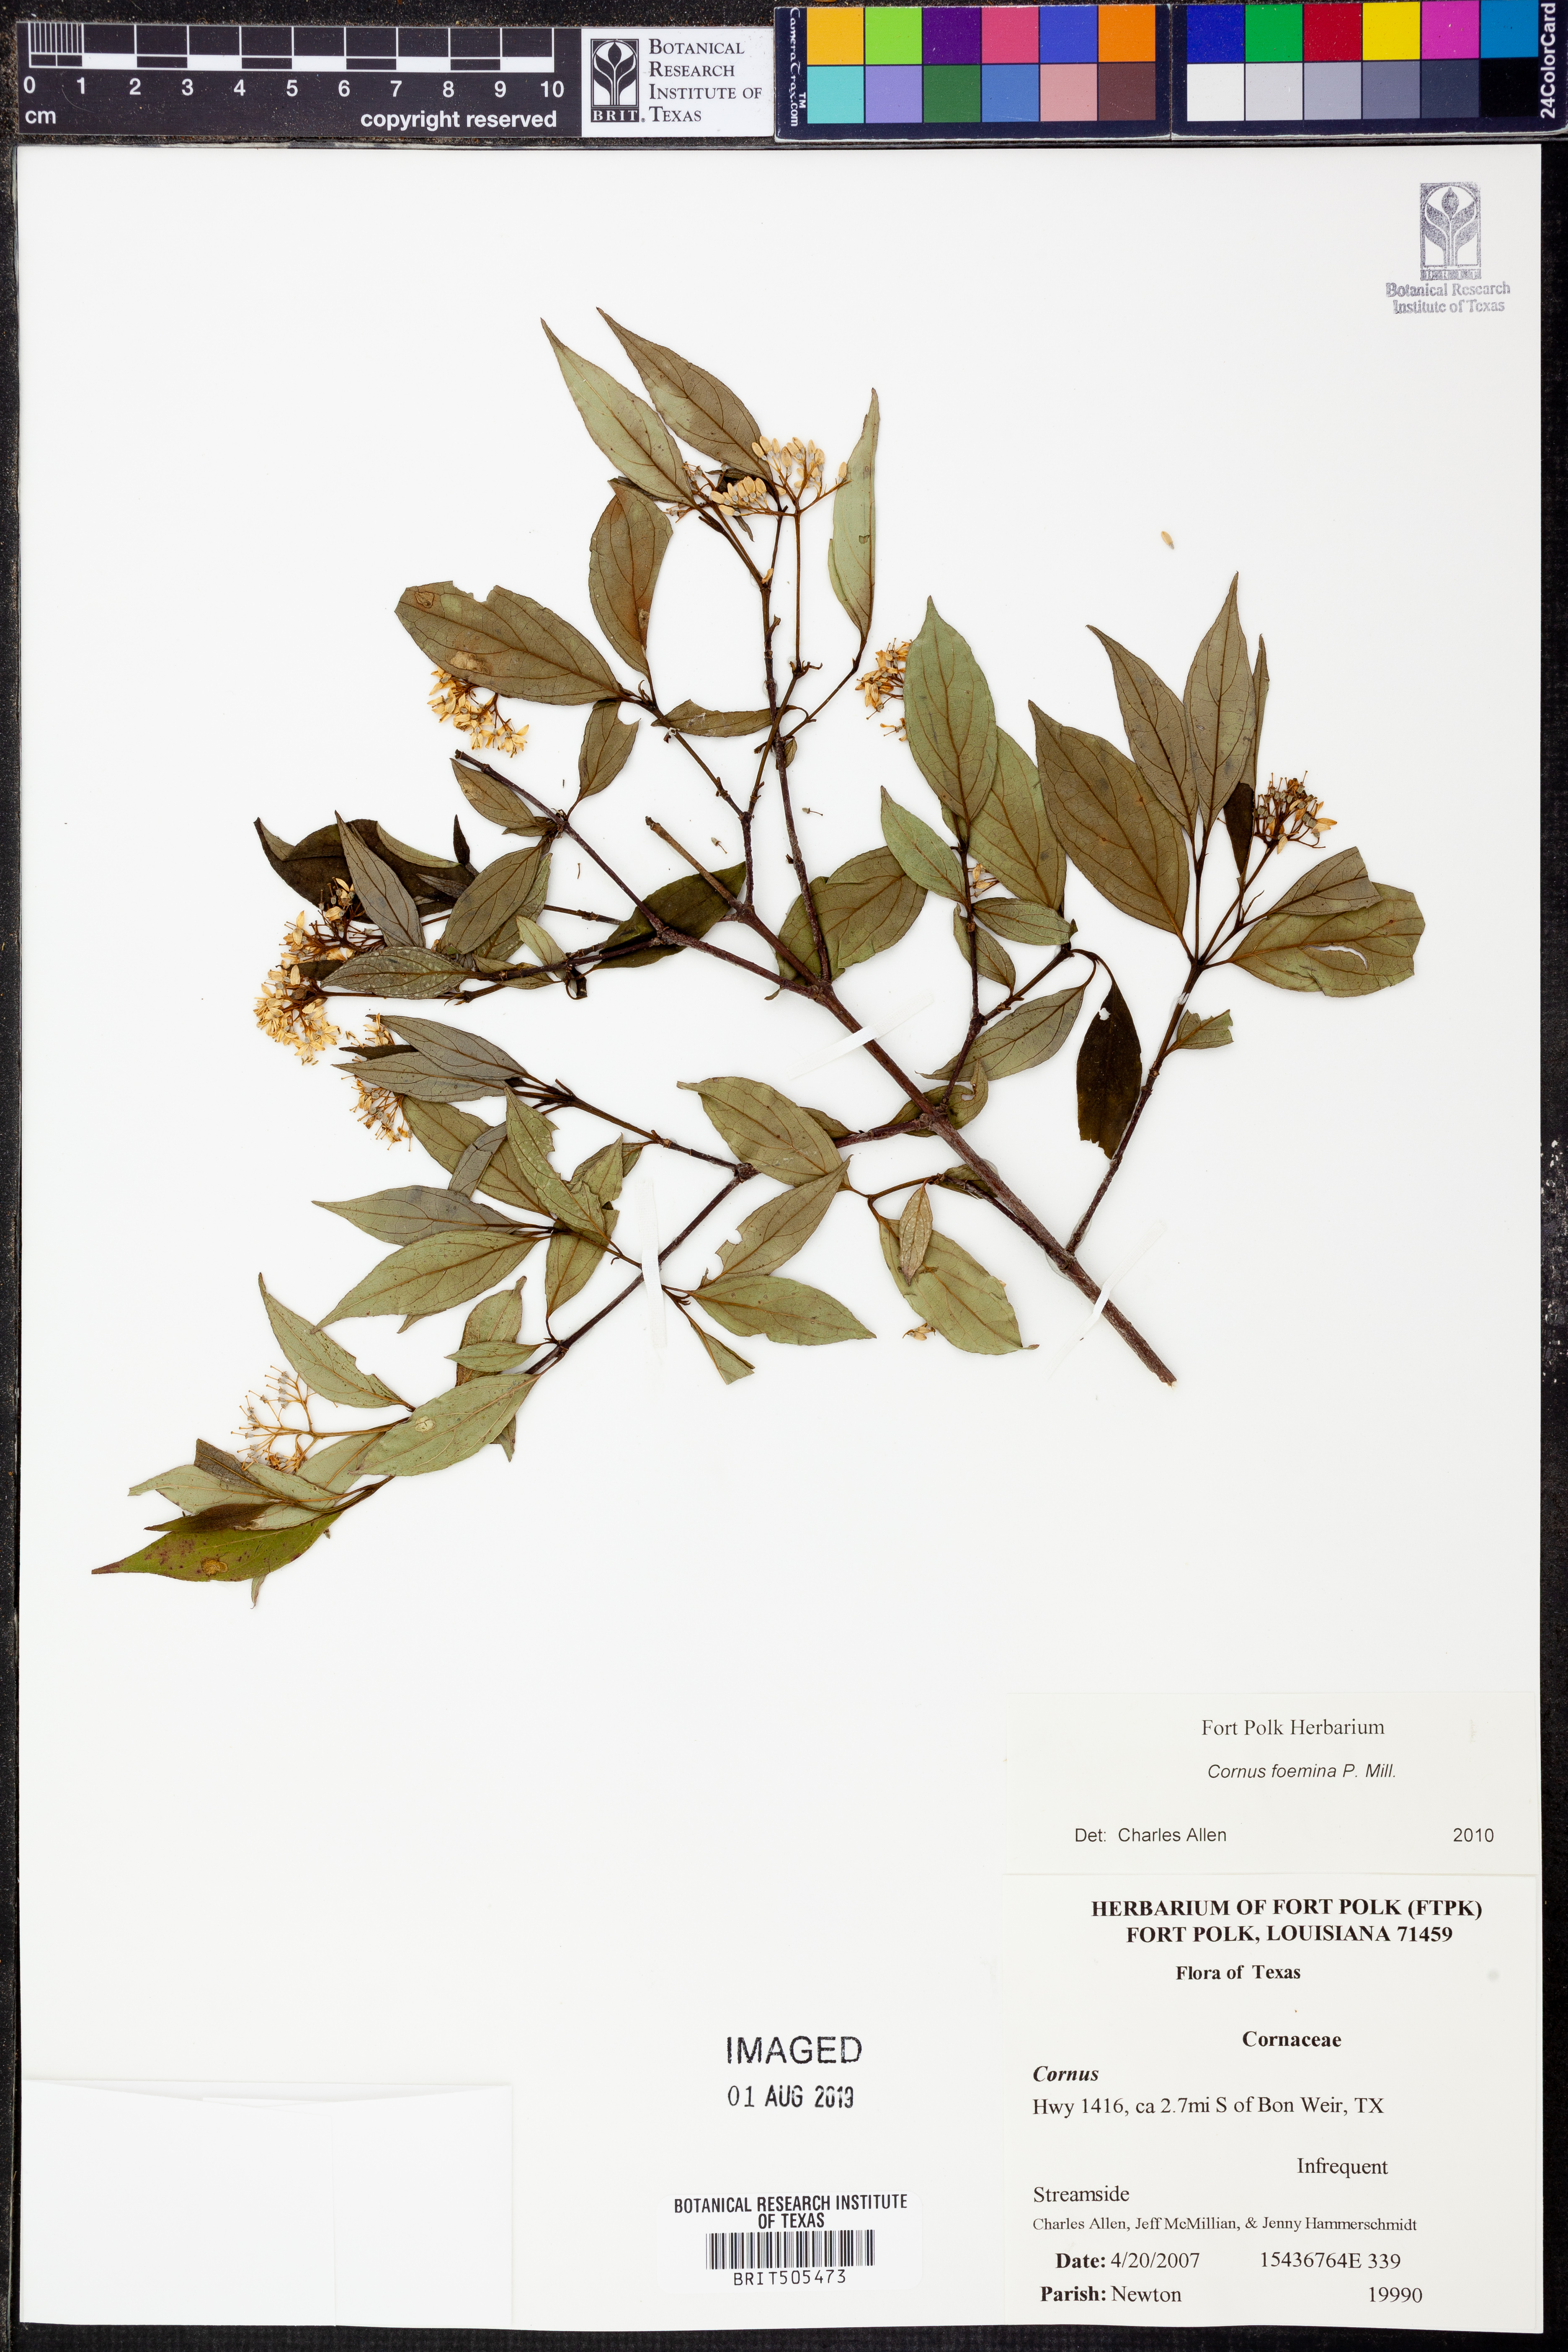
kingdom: Plantae
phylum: Tracheophyta
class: Magnoliopsida
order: Cornales
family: Cornaceae
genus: Cornus
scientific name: Cornus foemina
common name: Swamp dogwood
